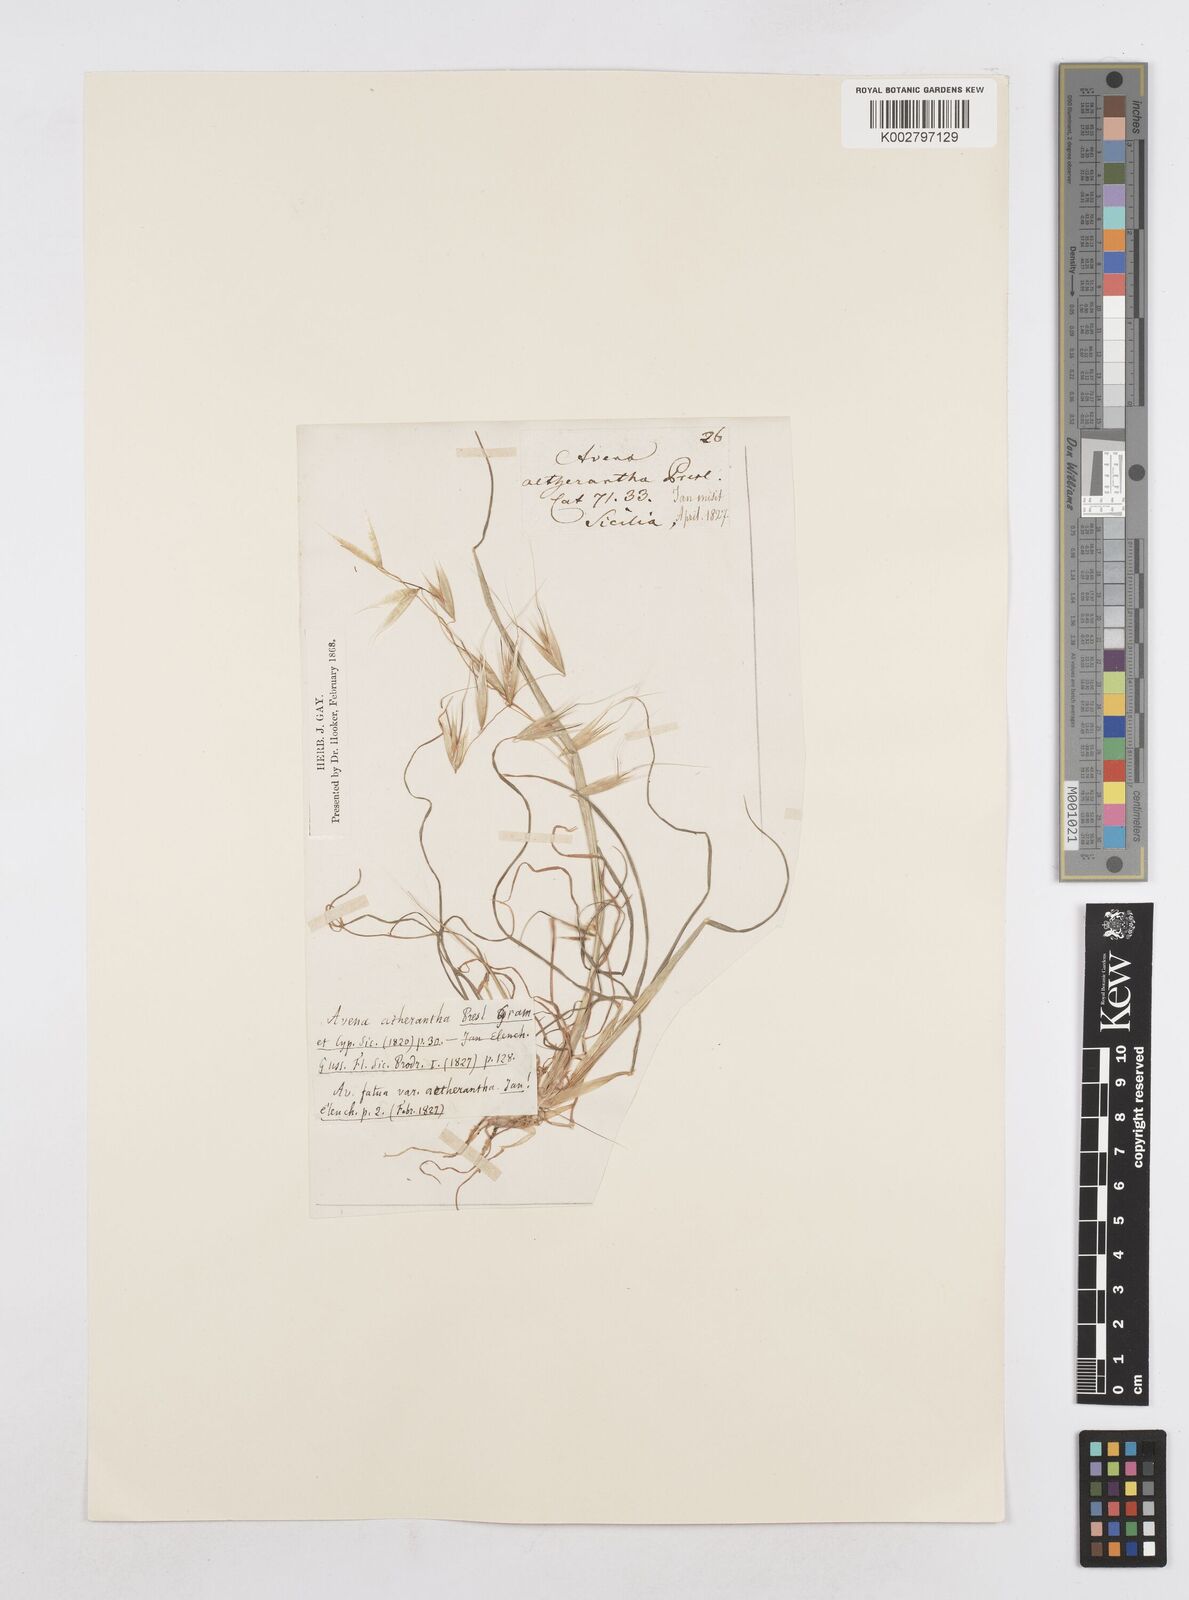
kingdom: Plantae
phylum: Tracheophyta
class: Liliopsida
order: Poales
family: Poaceae
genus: Avena
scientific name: Avena
